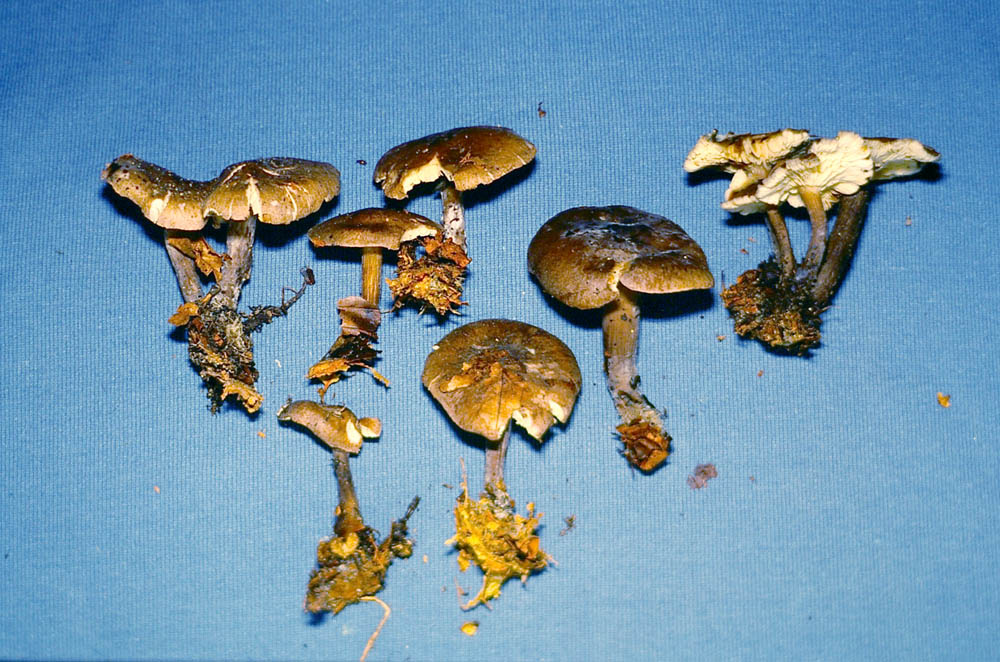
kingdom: Fungi
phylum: Basidiomycota
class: Agaricomycetes
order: Agaricales
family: Lyophyllaceae
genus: Calocybe
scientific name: Calocybe obscurissima
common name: mørk fagerhat
